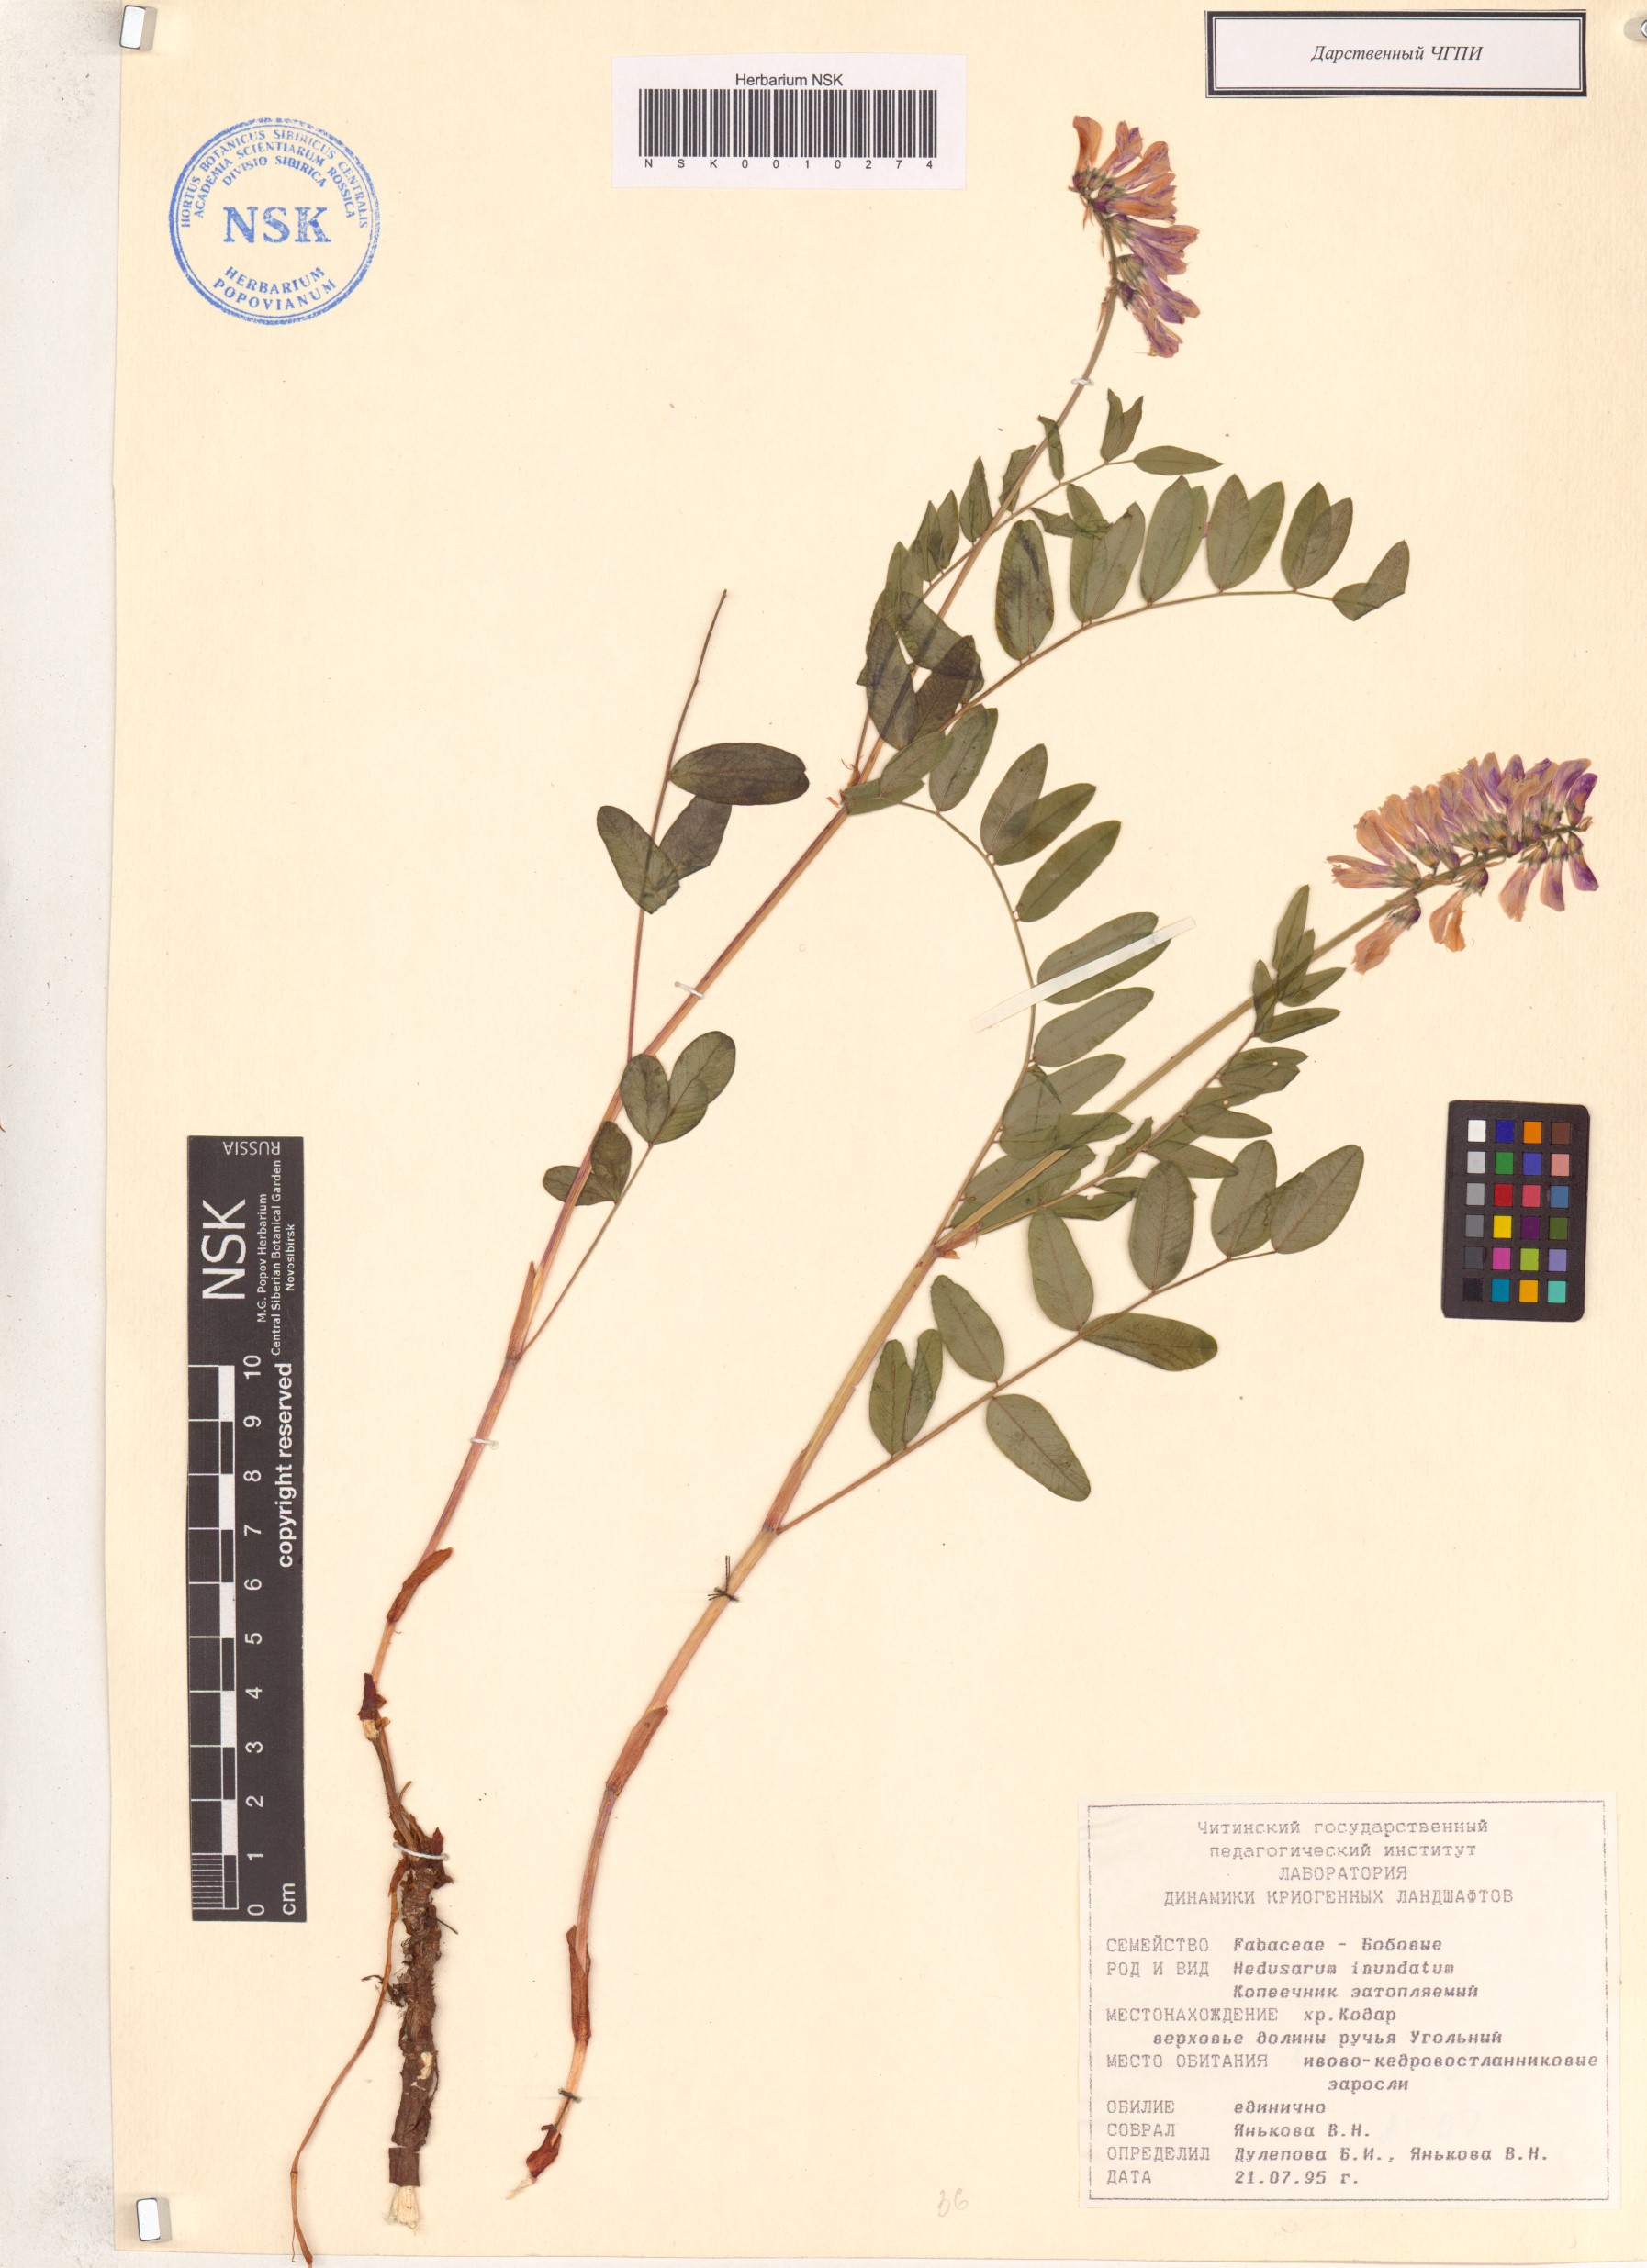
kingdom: Plantae
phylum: Tracheophyta
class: Magnoliopsida
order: Fabales
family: Fabaceae
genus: Hedysarum
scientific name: Hedysarum inundatum
